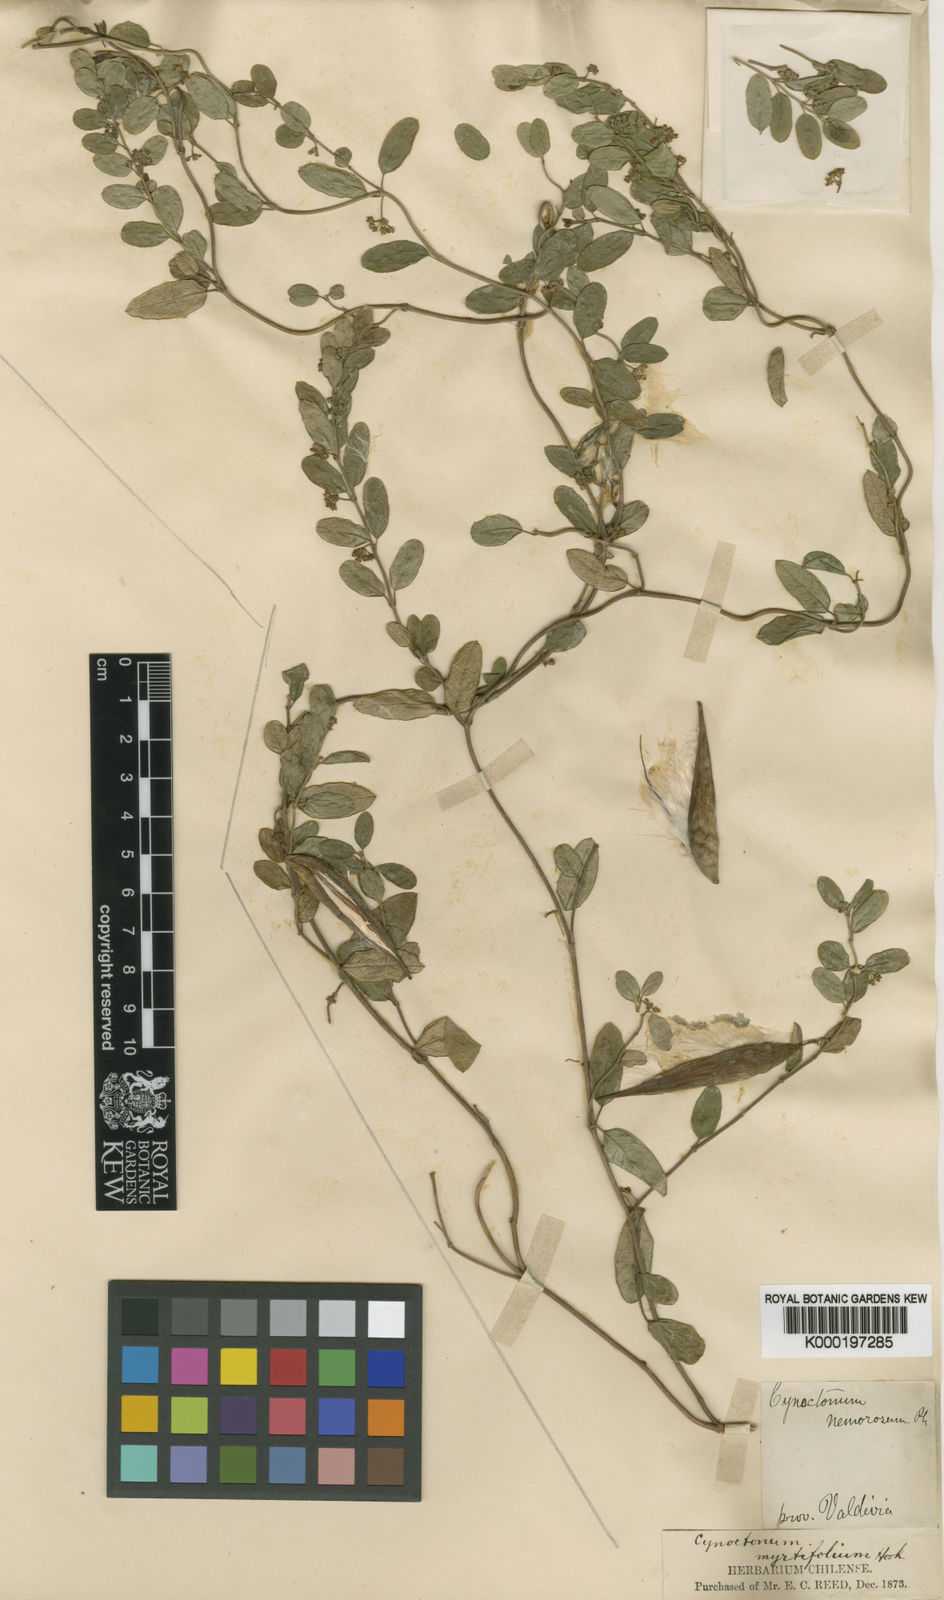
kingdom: Plantae
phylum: Tracheophyta
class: Magnoliopsida
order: Gentianales
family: Apocynaceae
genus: Diplolepis
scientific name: Diplolepis myrtifolia
